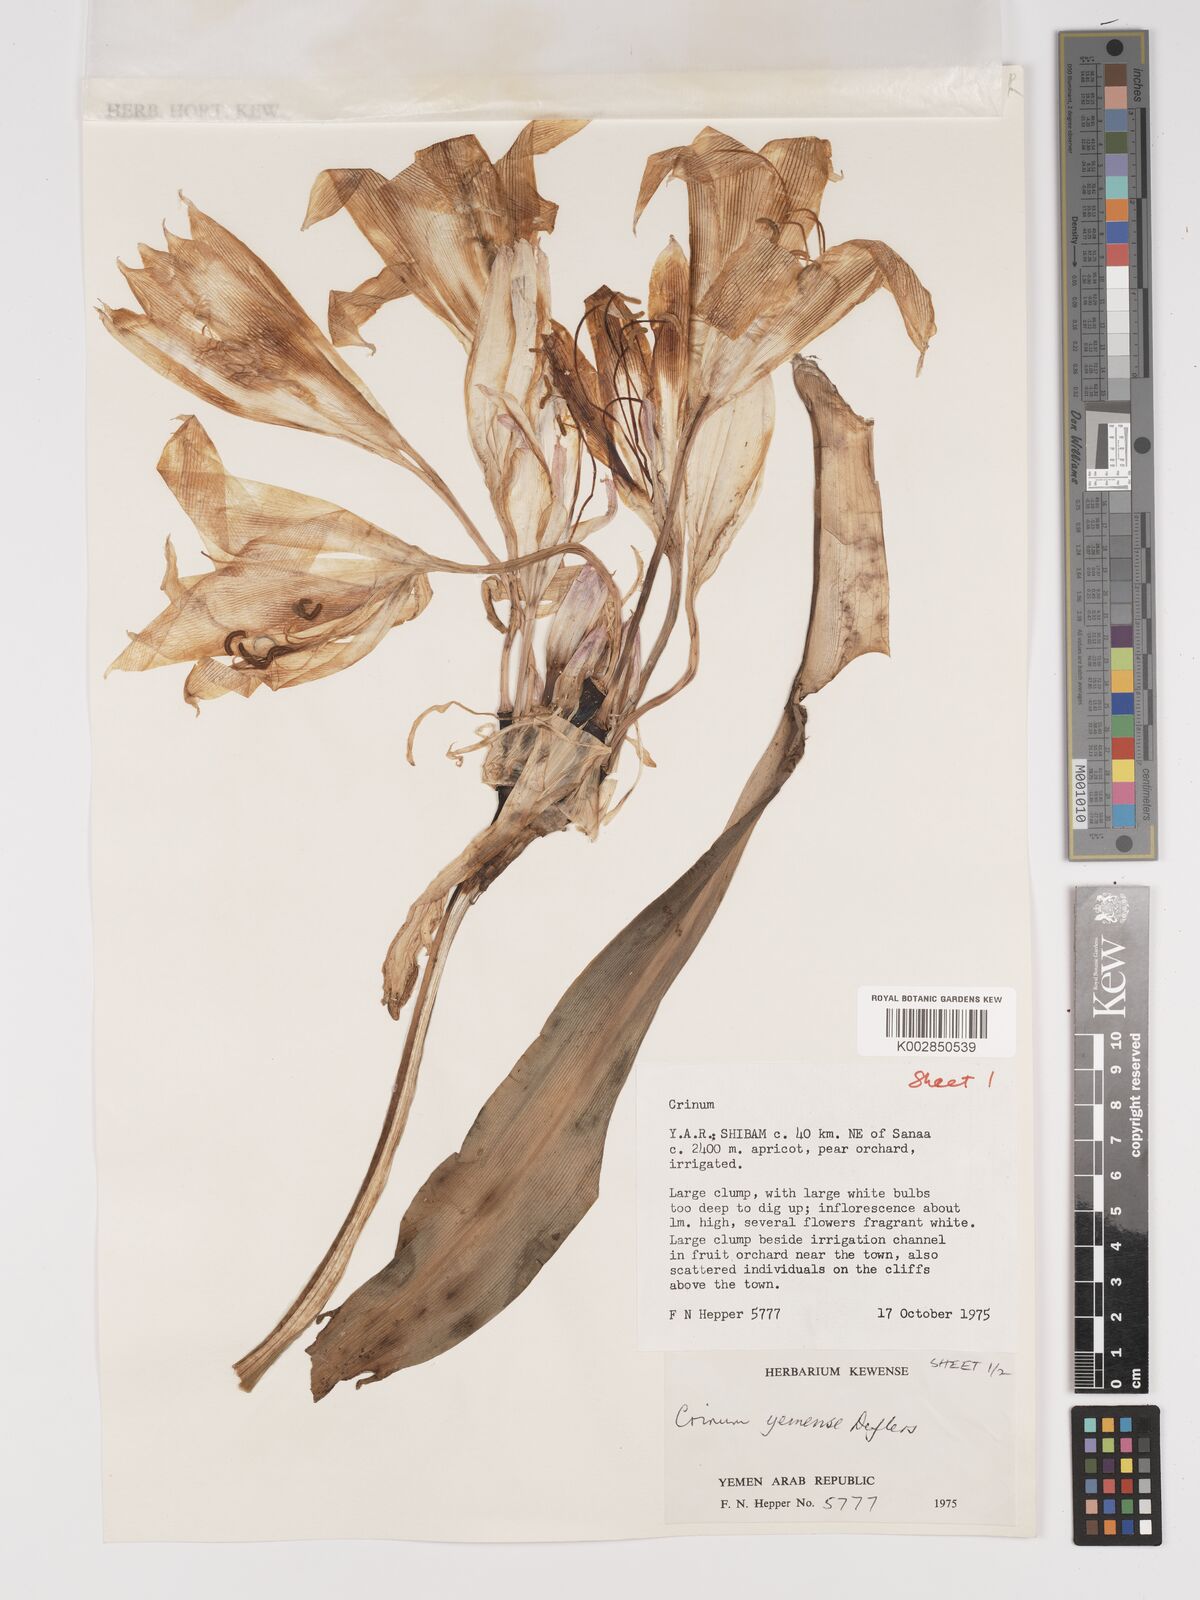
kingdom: Plantae
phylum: Tracheophyta
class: Liliopsida
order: Asparagales
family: Amaryllidaceae
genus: Crinum
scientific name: Crinum album
